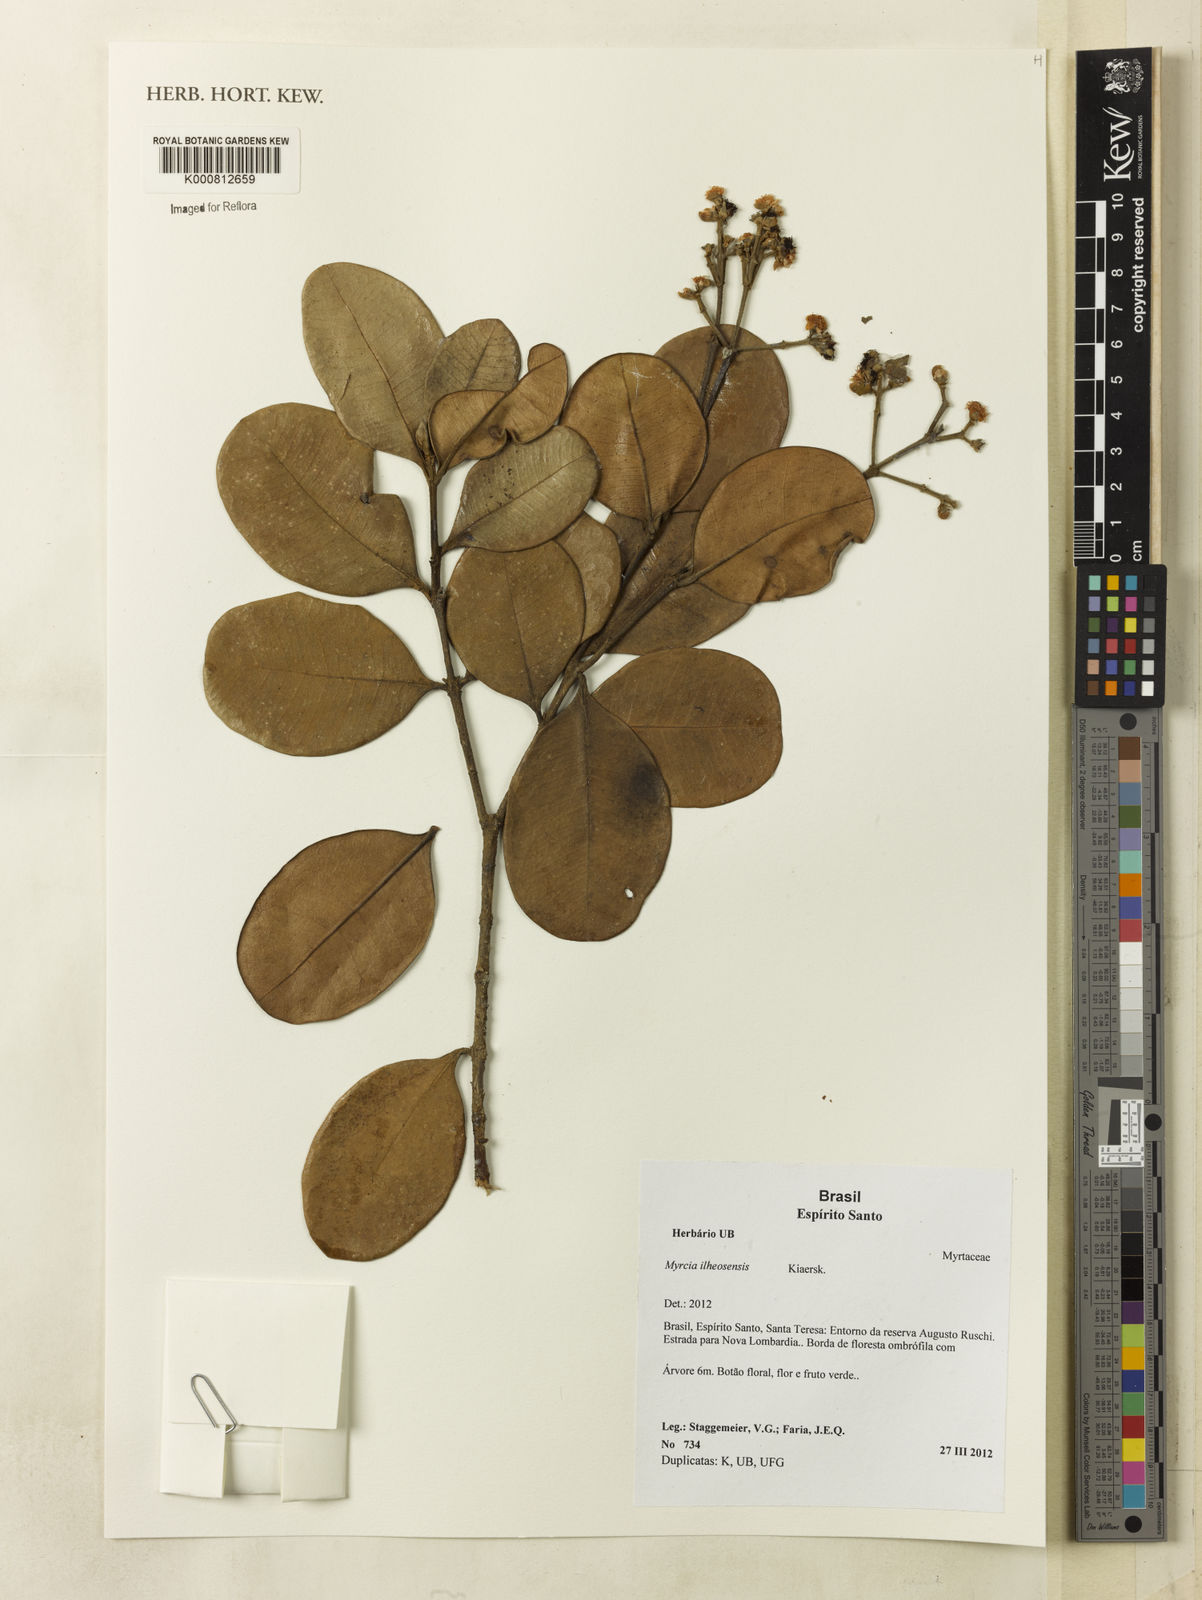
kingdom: Plantae
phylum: Tracheophyta
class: Magnoliopsida
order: Myrtales
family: Myrtaceae
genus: Myrcia
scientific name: Myrcia ilheosensis
